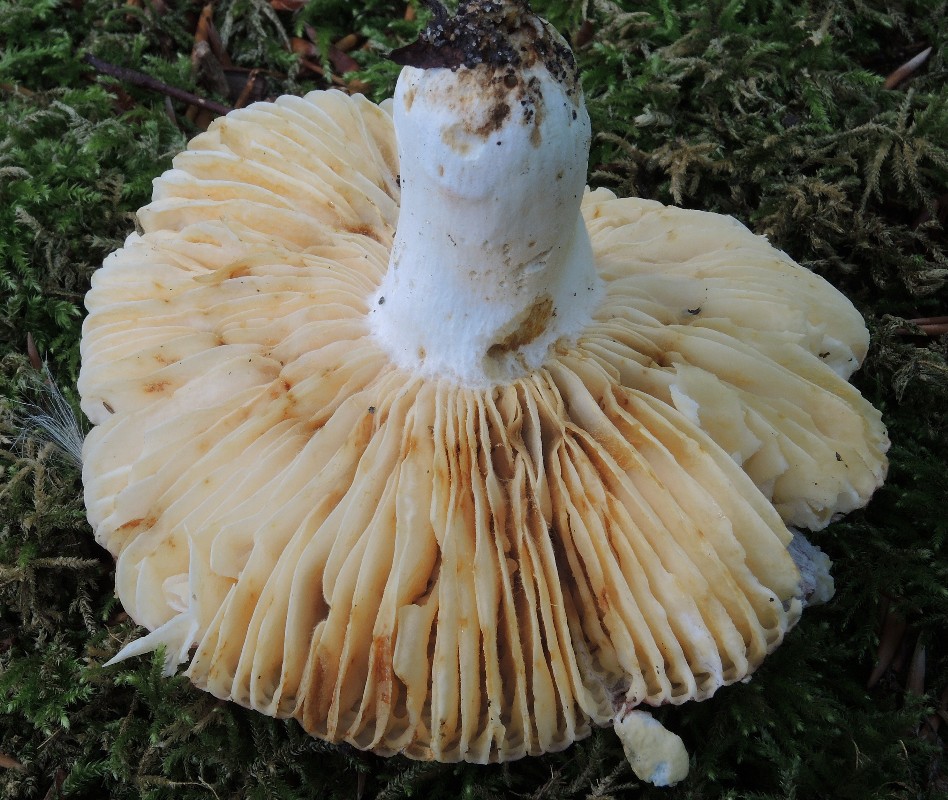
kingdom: Fungi
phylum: Basidiomycota
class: Agaricomycetes
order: Russulales
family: Russulaceae
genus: Russula
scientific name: Russula maculata
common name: plettet skørhat
